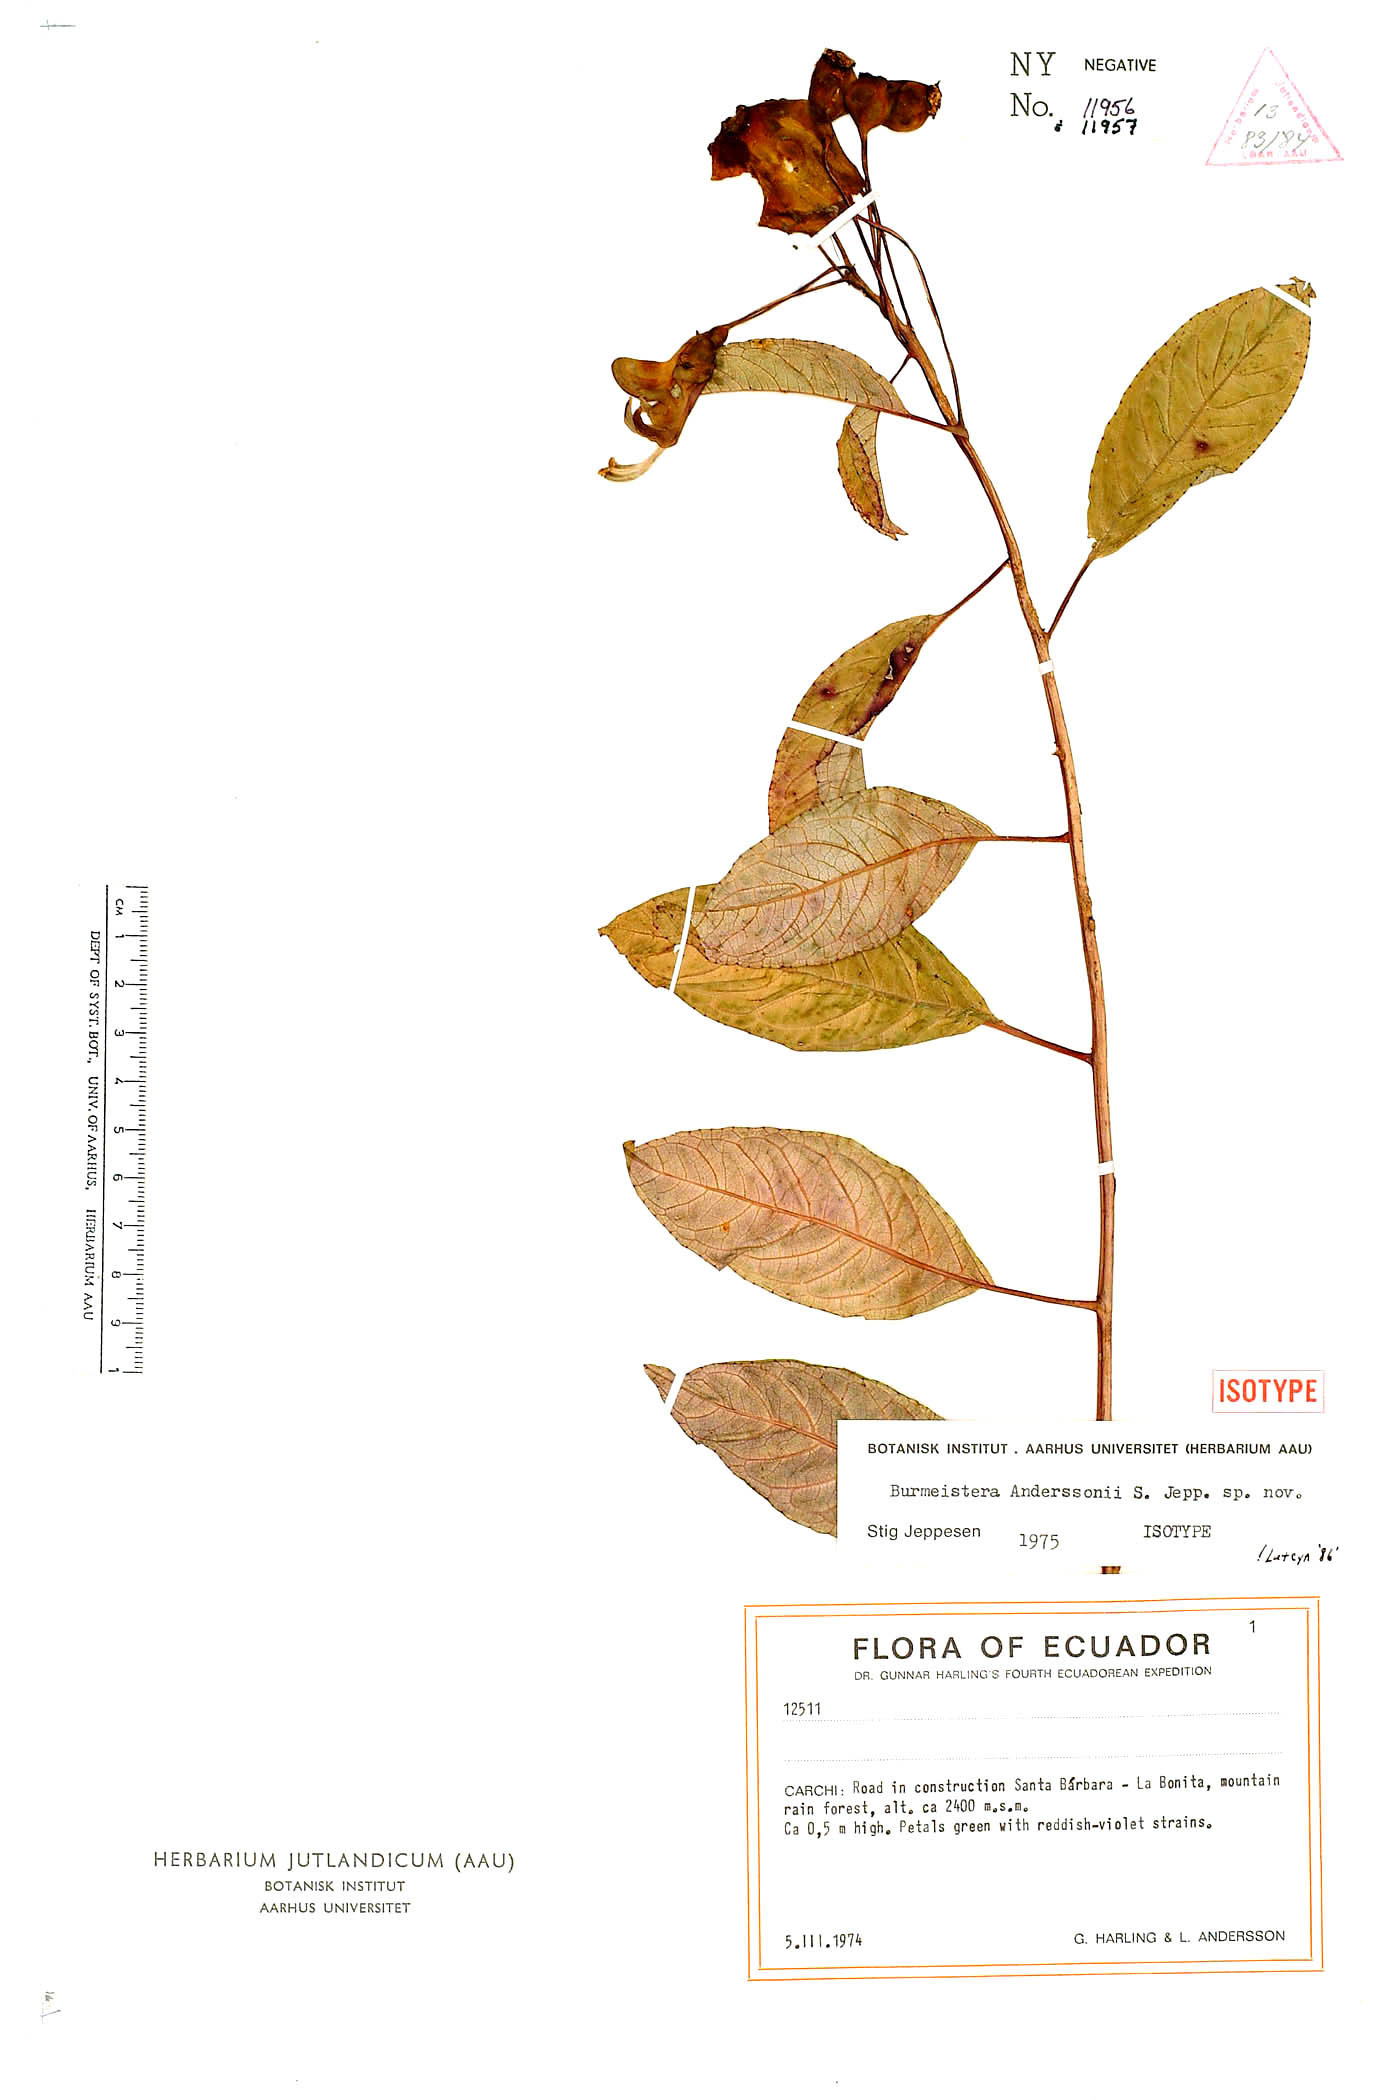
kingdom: Plantae
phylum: Tracheophyta
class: Magnoliopsida
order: Asterales
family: Campanulaceae
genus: Burmeistera
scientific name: Burmeistera anderssonii
